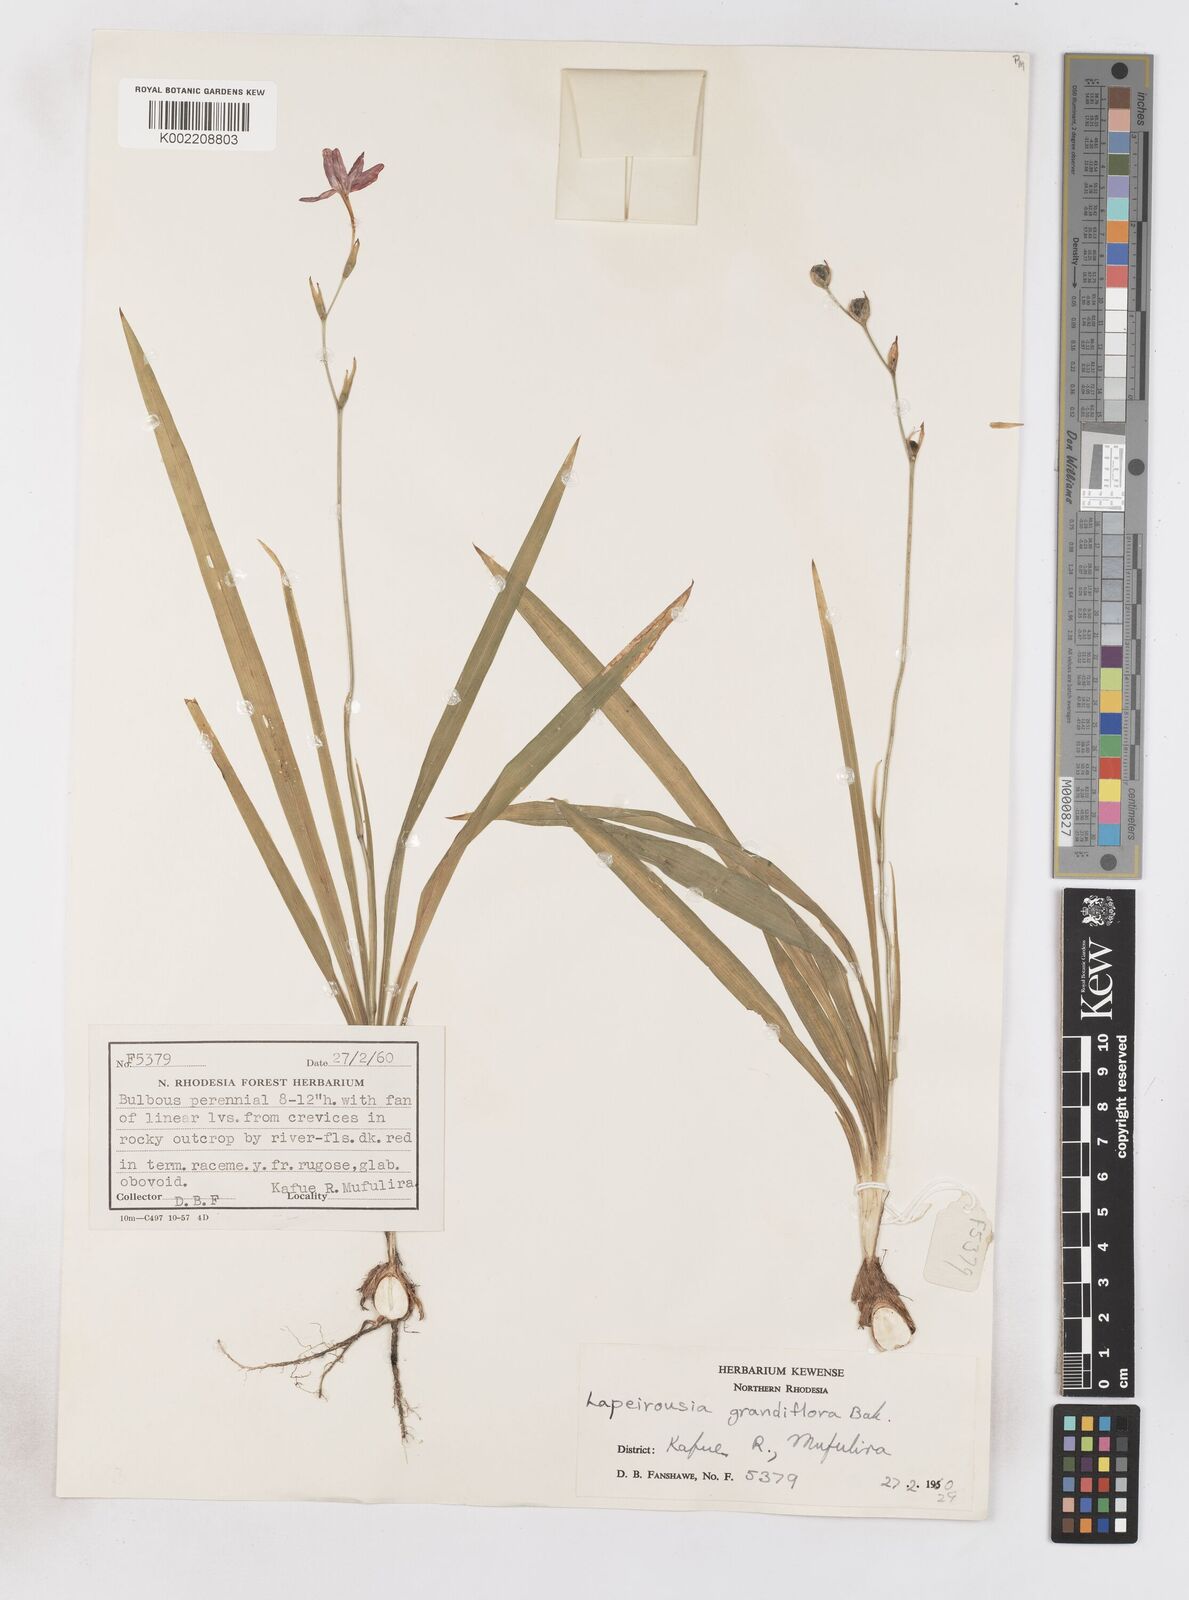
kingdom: Plantae
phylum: Tracheophyta
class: Liliopsida
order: Asparagales
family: Iridaceae
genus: Freesia
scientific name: Freesia laxa
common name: False freesia
